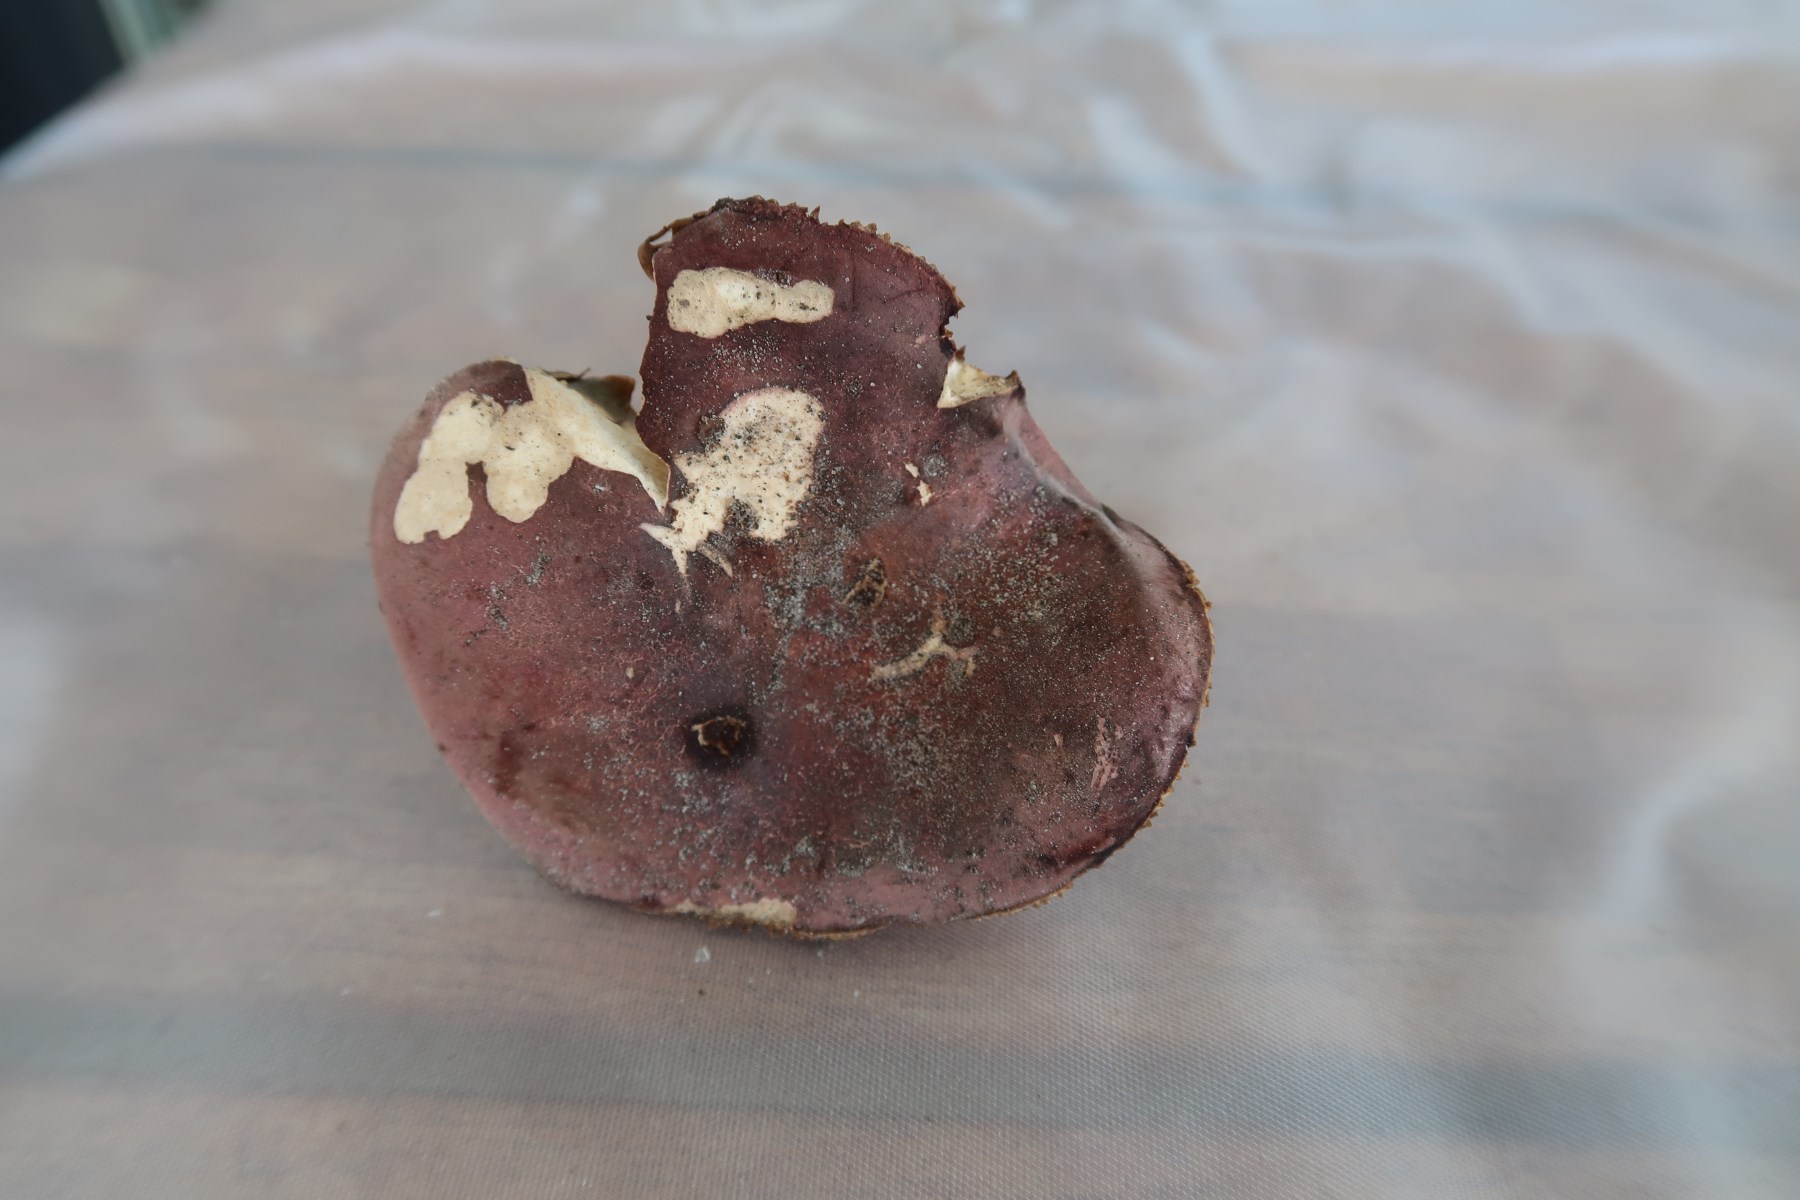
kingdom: Fungi
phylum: Basidiomycota
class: Agaricomycetes
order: Russulales
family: Russulaceae
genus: Russula
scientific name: Russula faginea
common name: bøge-skørhat
